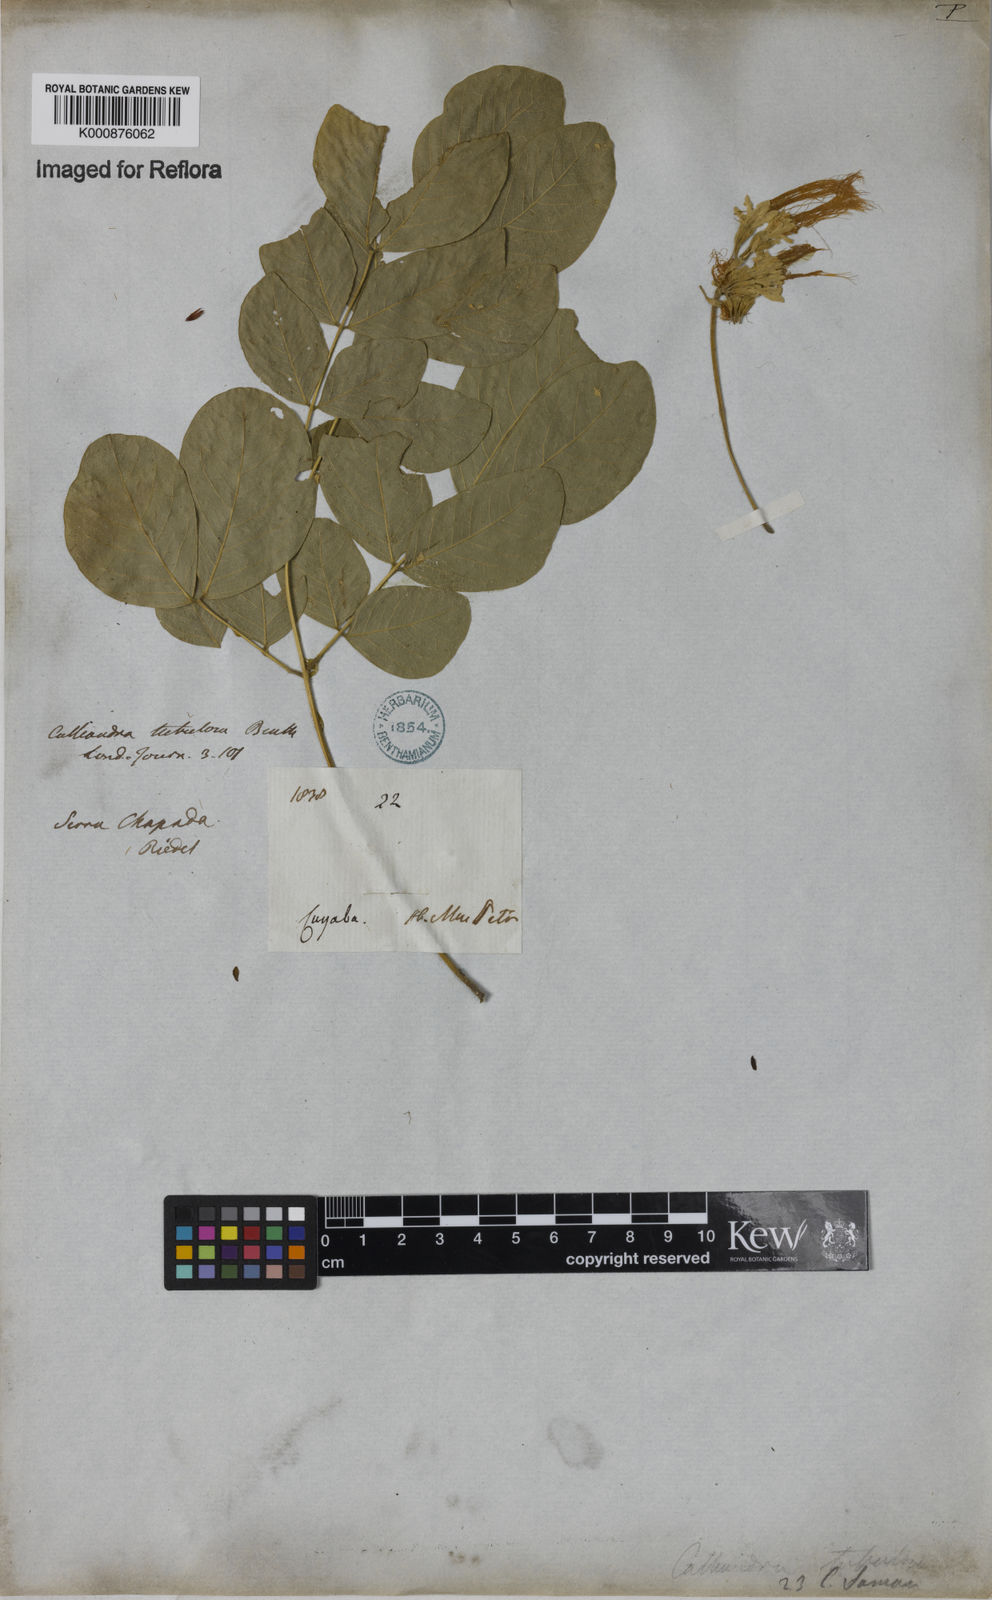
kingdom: Plantae
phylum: Tracheophyta
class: Magnoliopsida
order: Fabales
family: Fabaceae
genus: Samanea
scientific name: Samanea tubulosa
